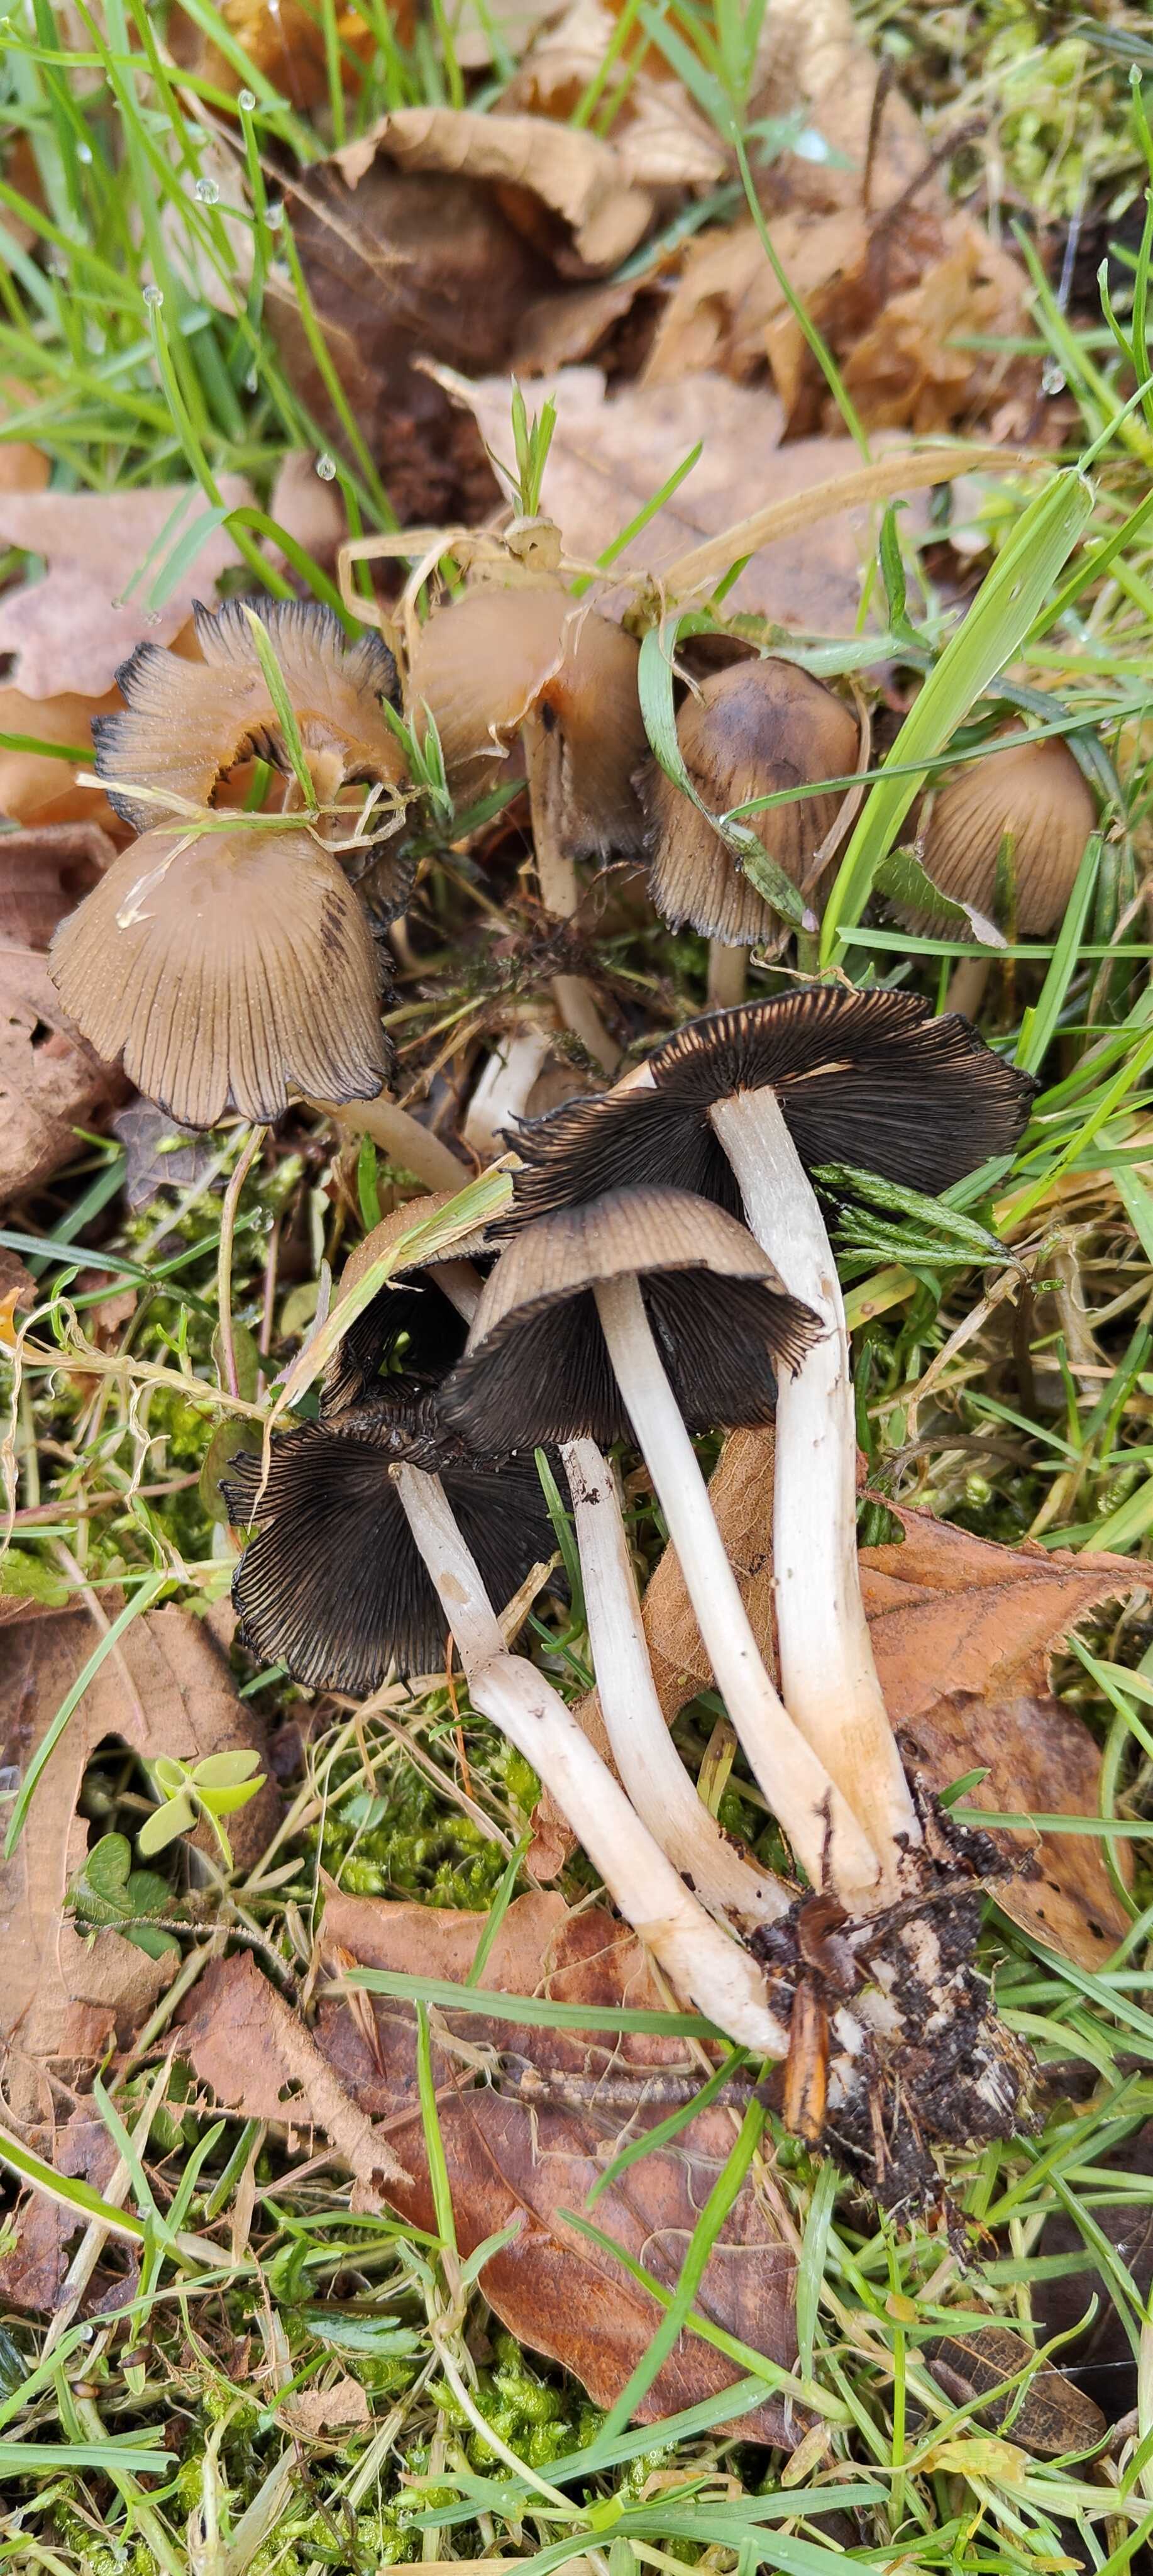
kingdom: Fungi
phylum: Basidiomycota
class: Agaricomycetes
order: Agaricales
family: Psathyrellaceae
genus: Coprinellus
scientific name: Coprinellus micaceus
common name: glimmer-blækhat
